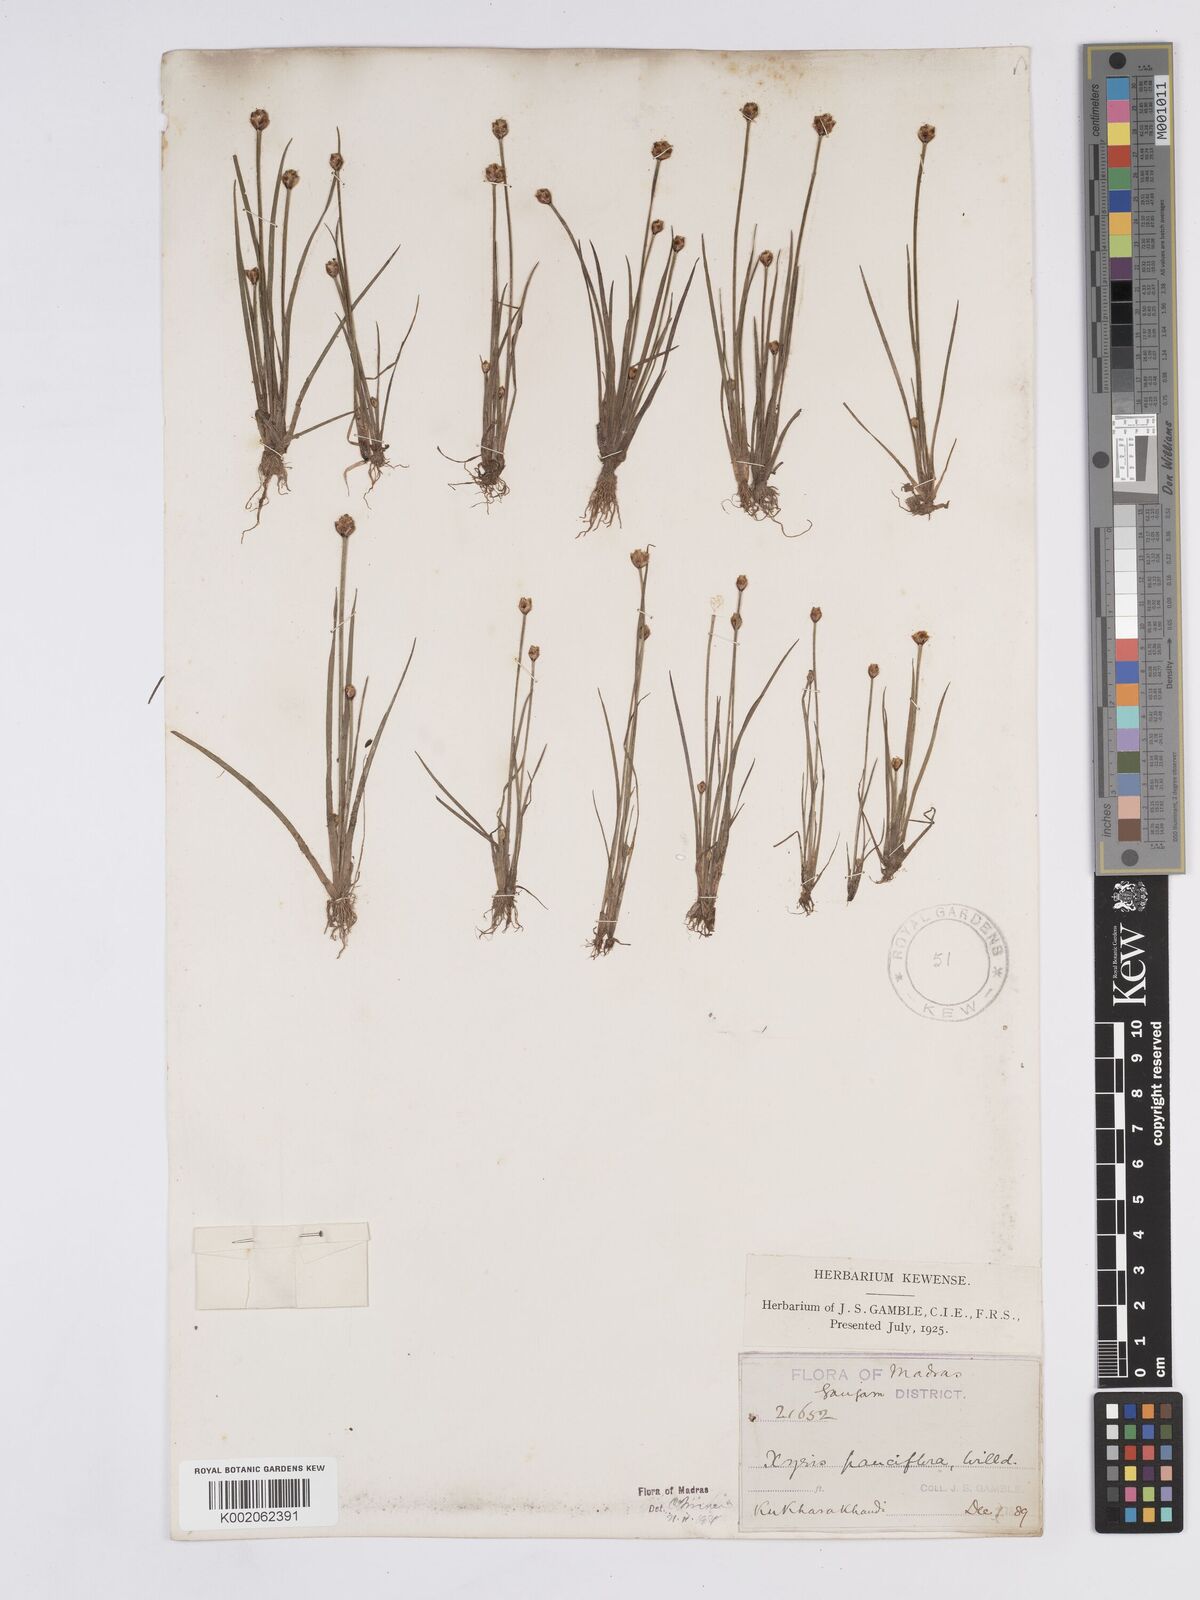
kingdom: Plantae
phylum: Tracheophyta
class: Liliopsida
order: Poales
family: Xyridaceae
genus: Xyris
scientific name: Xyris pauciflora
